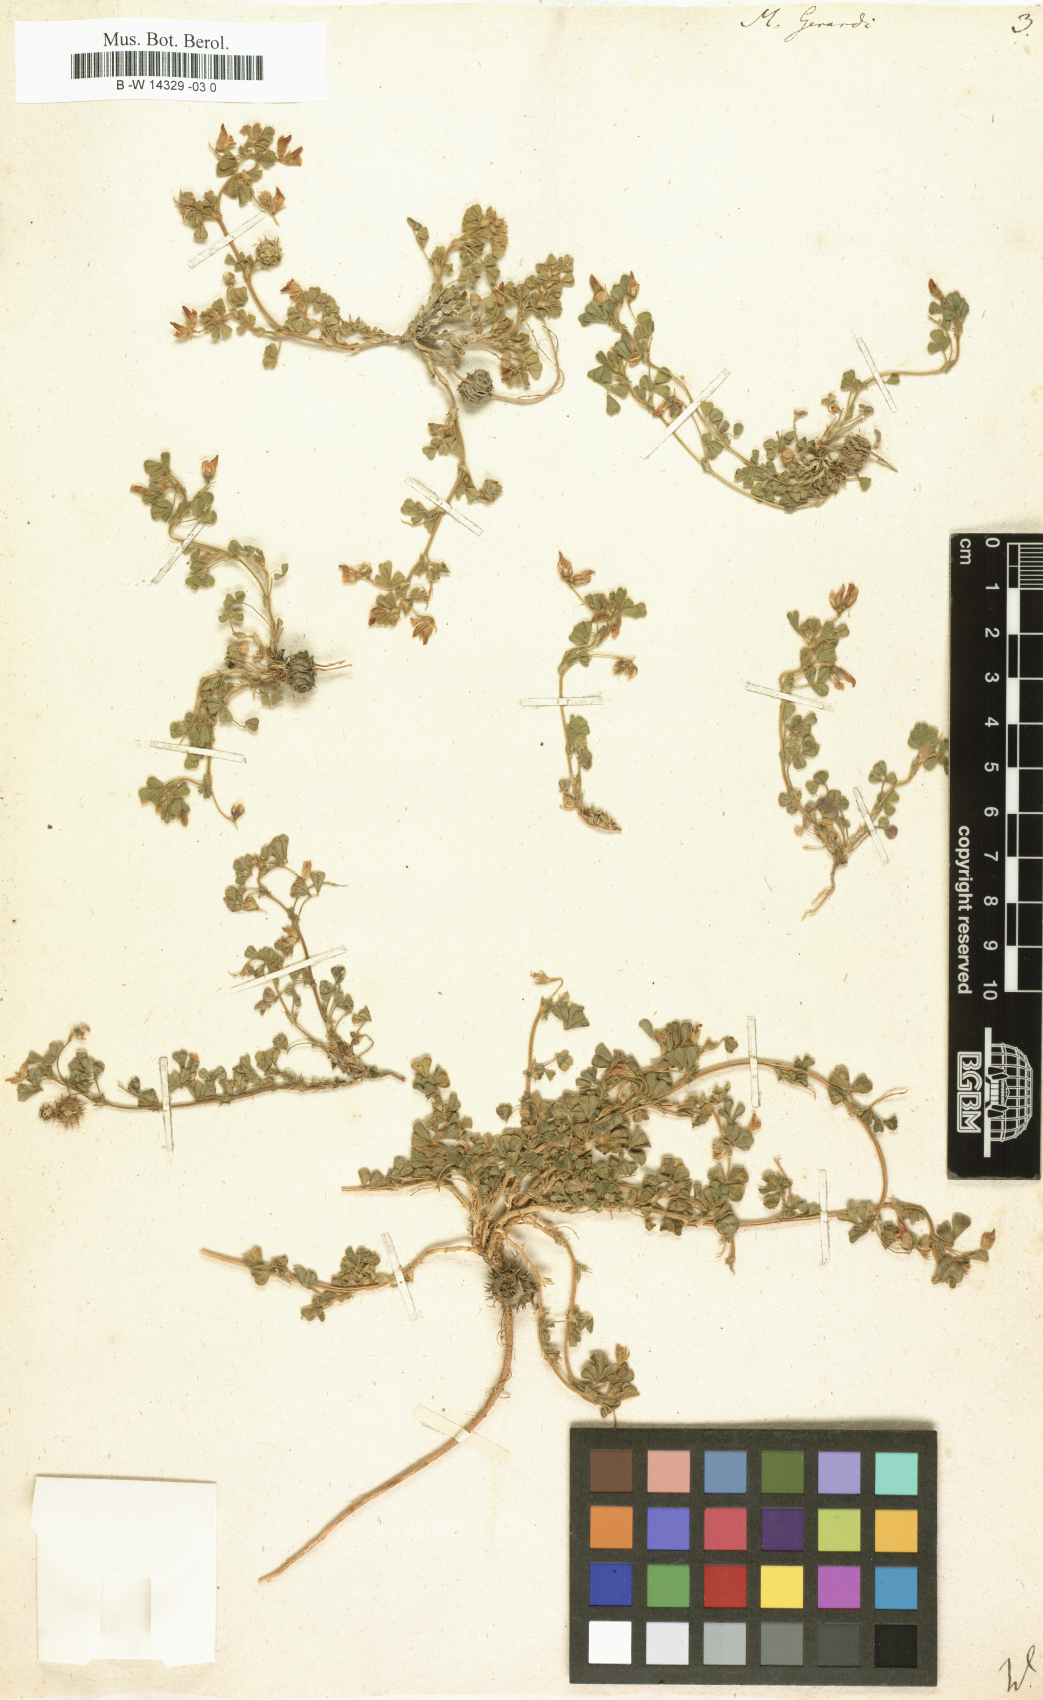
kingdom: Plantae
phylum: Tracheophyta
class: Magnoliopsida
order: Fabales
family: Fabaceae
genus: Medicago
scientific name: Medicago rigidula
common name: Tifton medic
